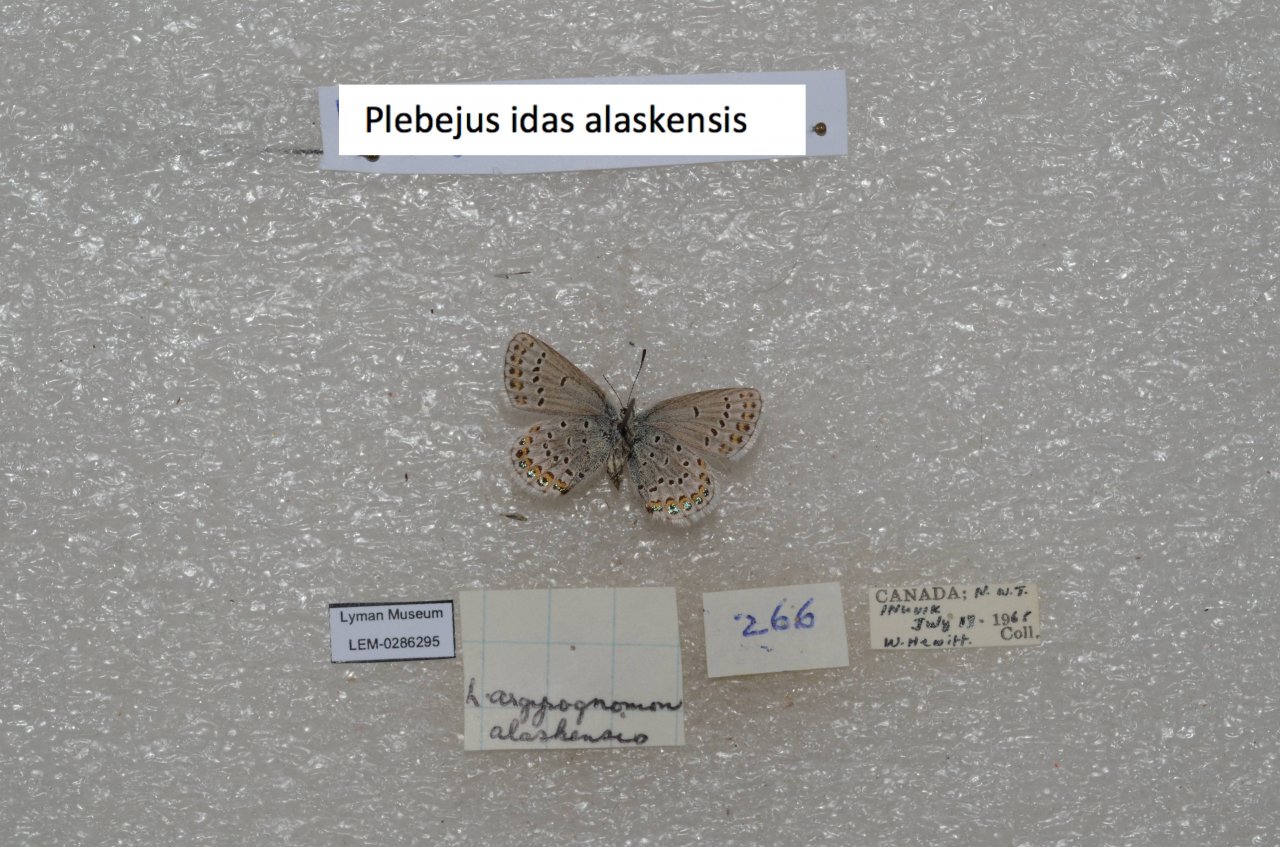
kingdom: Animalia
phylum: Arthropoda
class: Insecta
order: Lepidoptera
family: Lycaenidae
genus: Lycaeides
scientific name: Lycaeides idas
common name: Northern Blue
